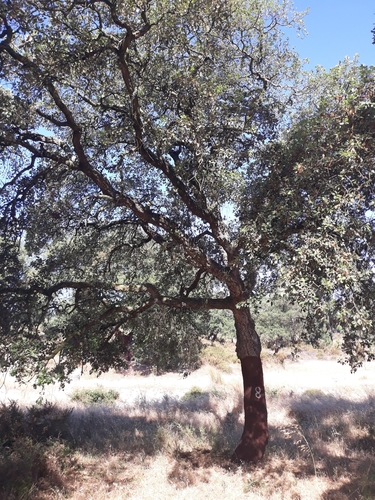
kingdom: Plantae
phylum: Tracheophyta
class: Magnoliopsida
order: Fagales
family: Fagaceae
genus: Quercus
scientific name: Quercus suber
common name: Cork oak
